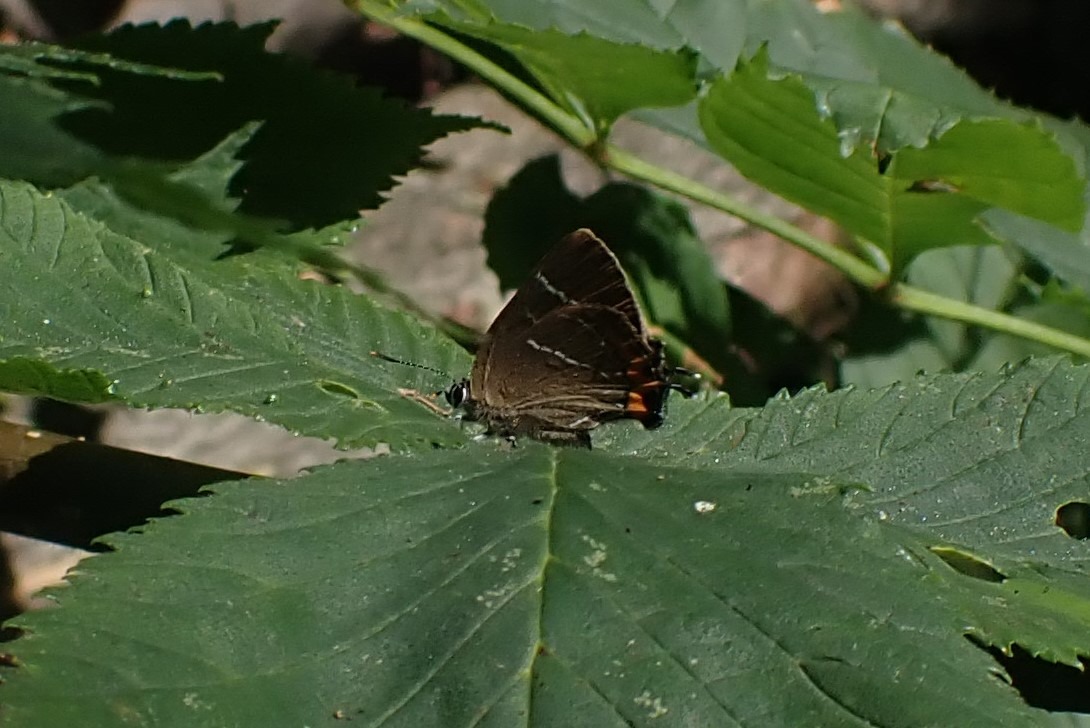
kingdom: Animalia
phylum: Arthropoda
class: Insecta
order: Lepidoptera
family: Lycaenidae
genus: Satyrium
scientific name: Satyrium w-album
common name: Det hvide W
